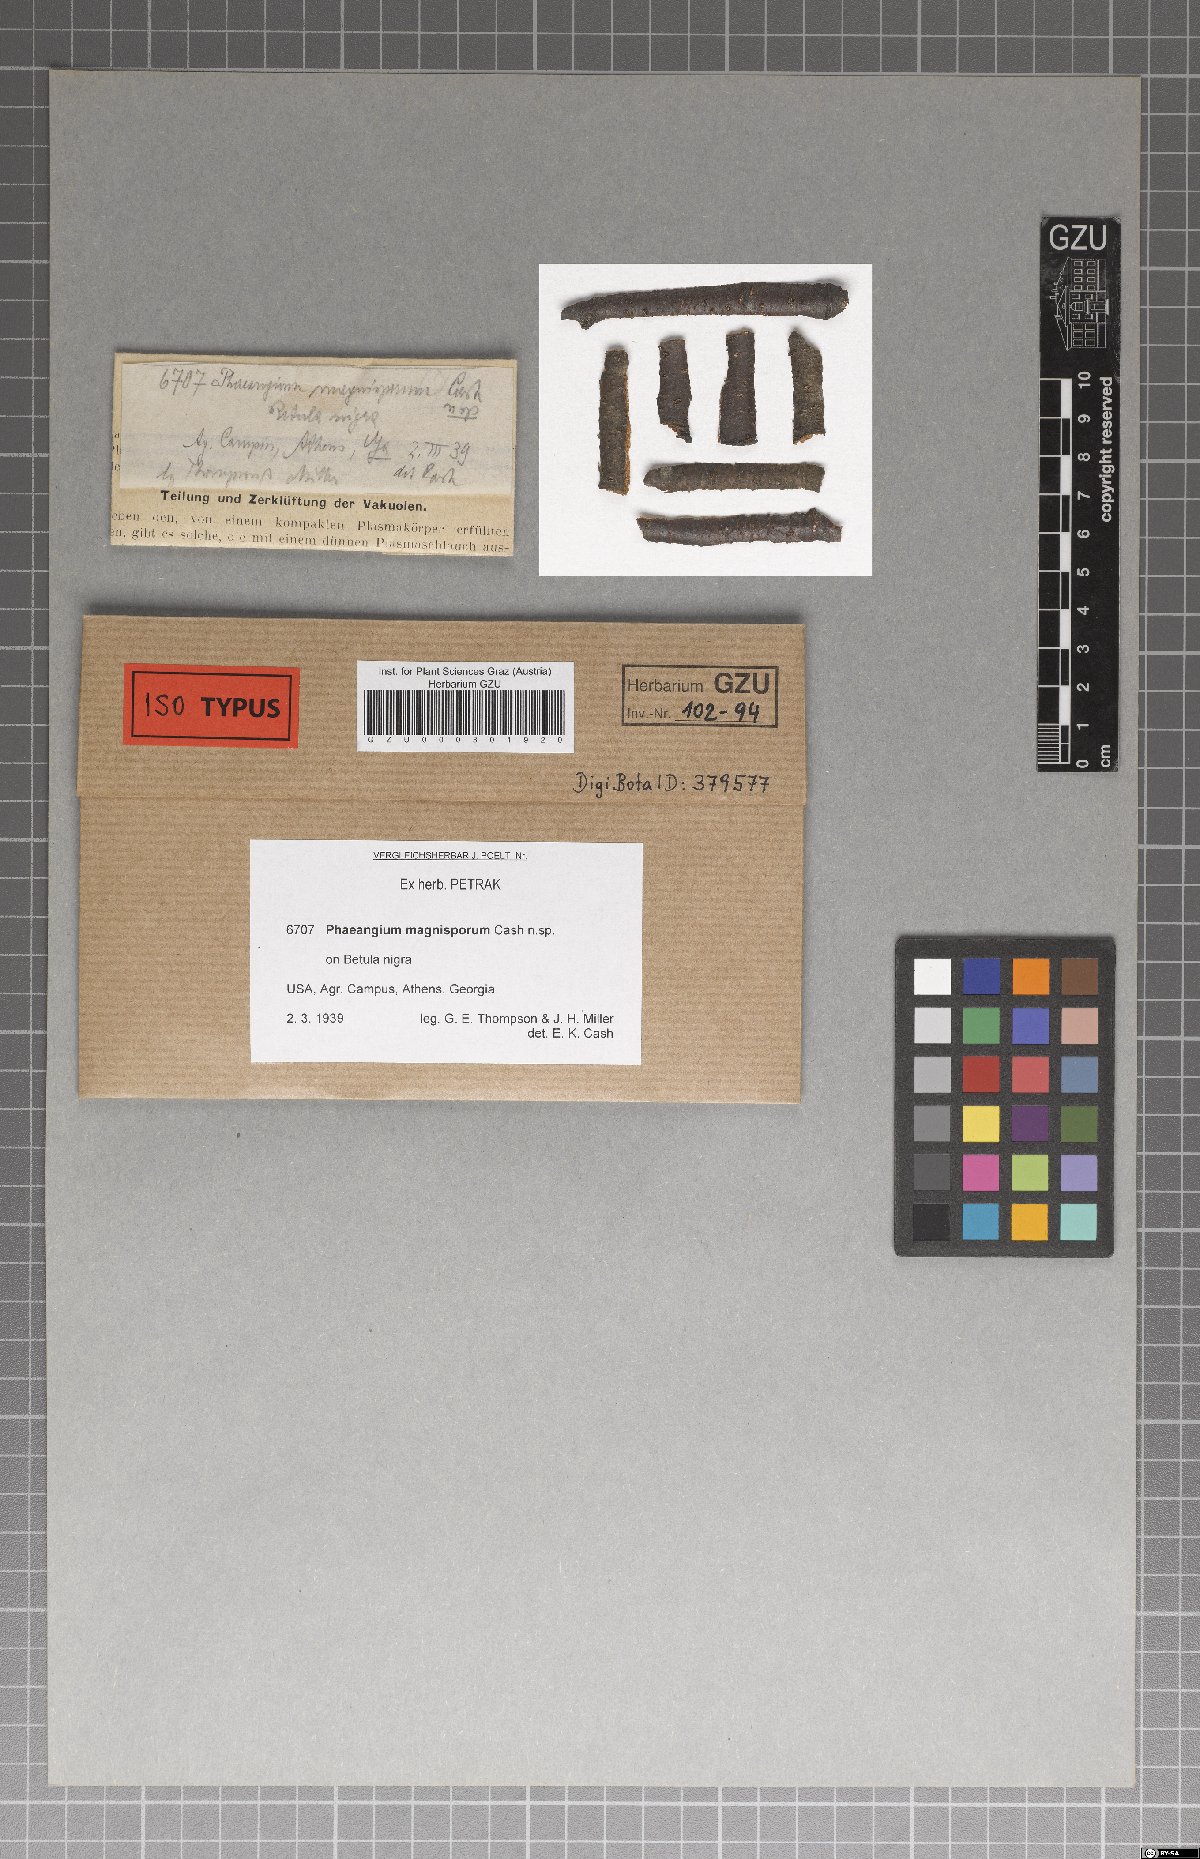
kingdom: Fungi
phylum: Ascomycota
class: Leotiomycetes
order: Helotiales
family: Cenangiaceae
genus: Mycosphaerangium
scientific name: Mycosphaerangium magnisporum
